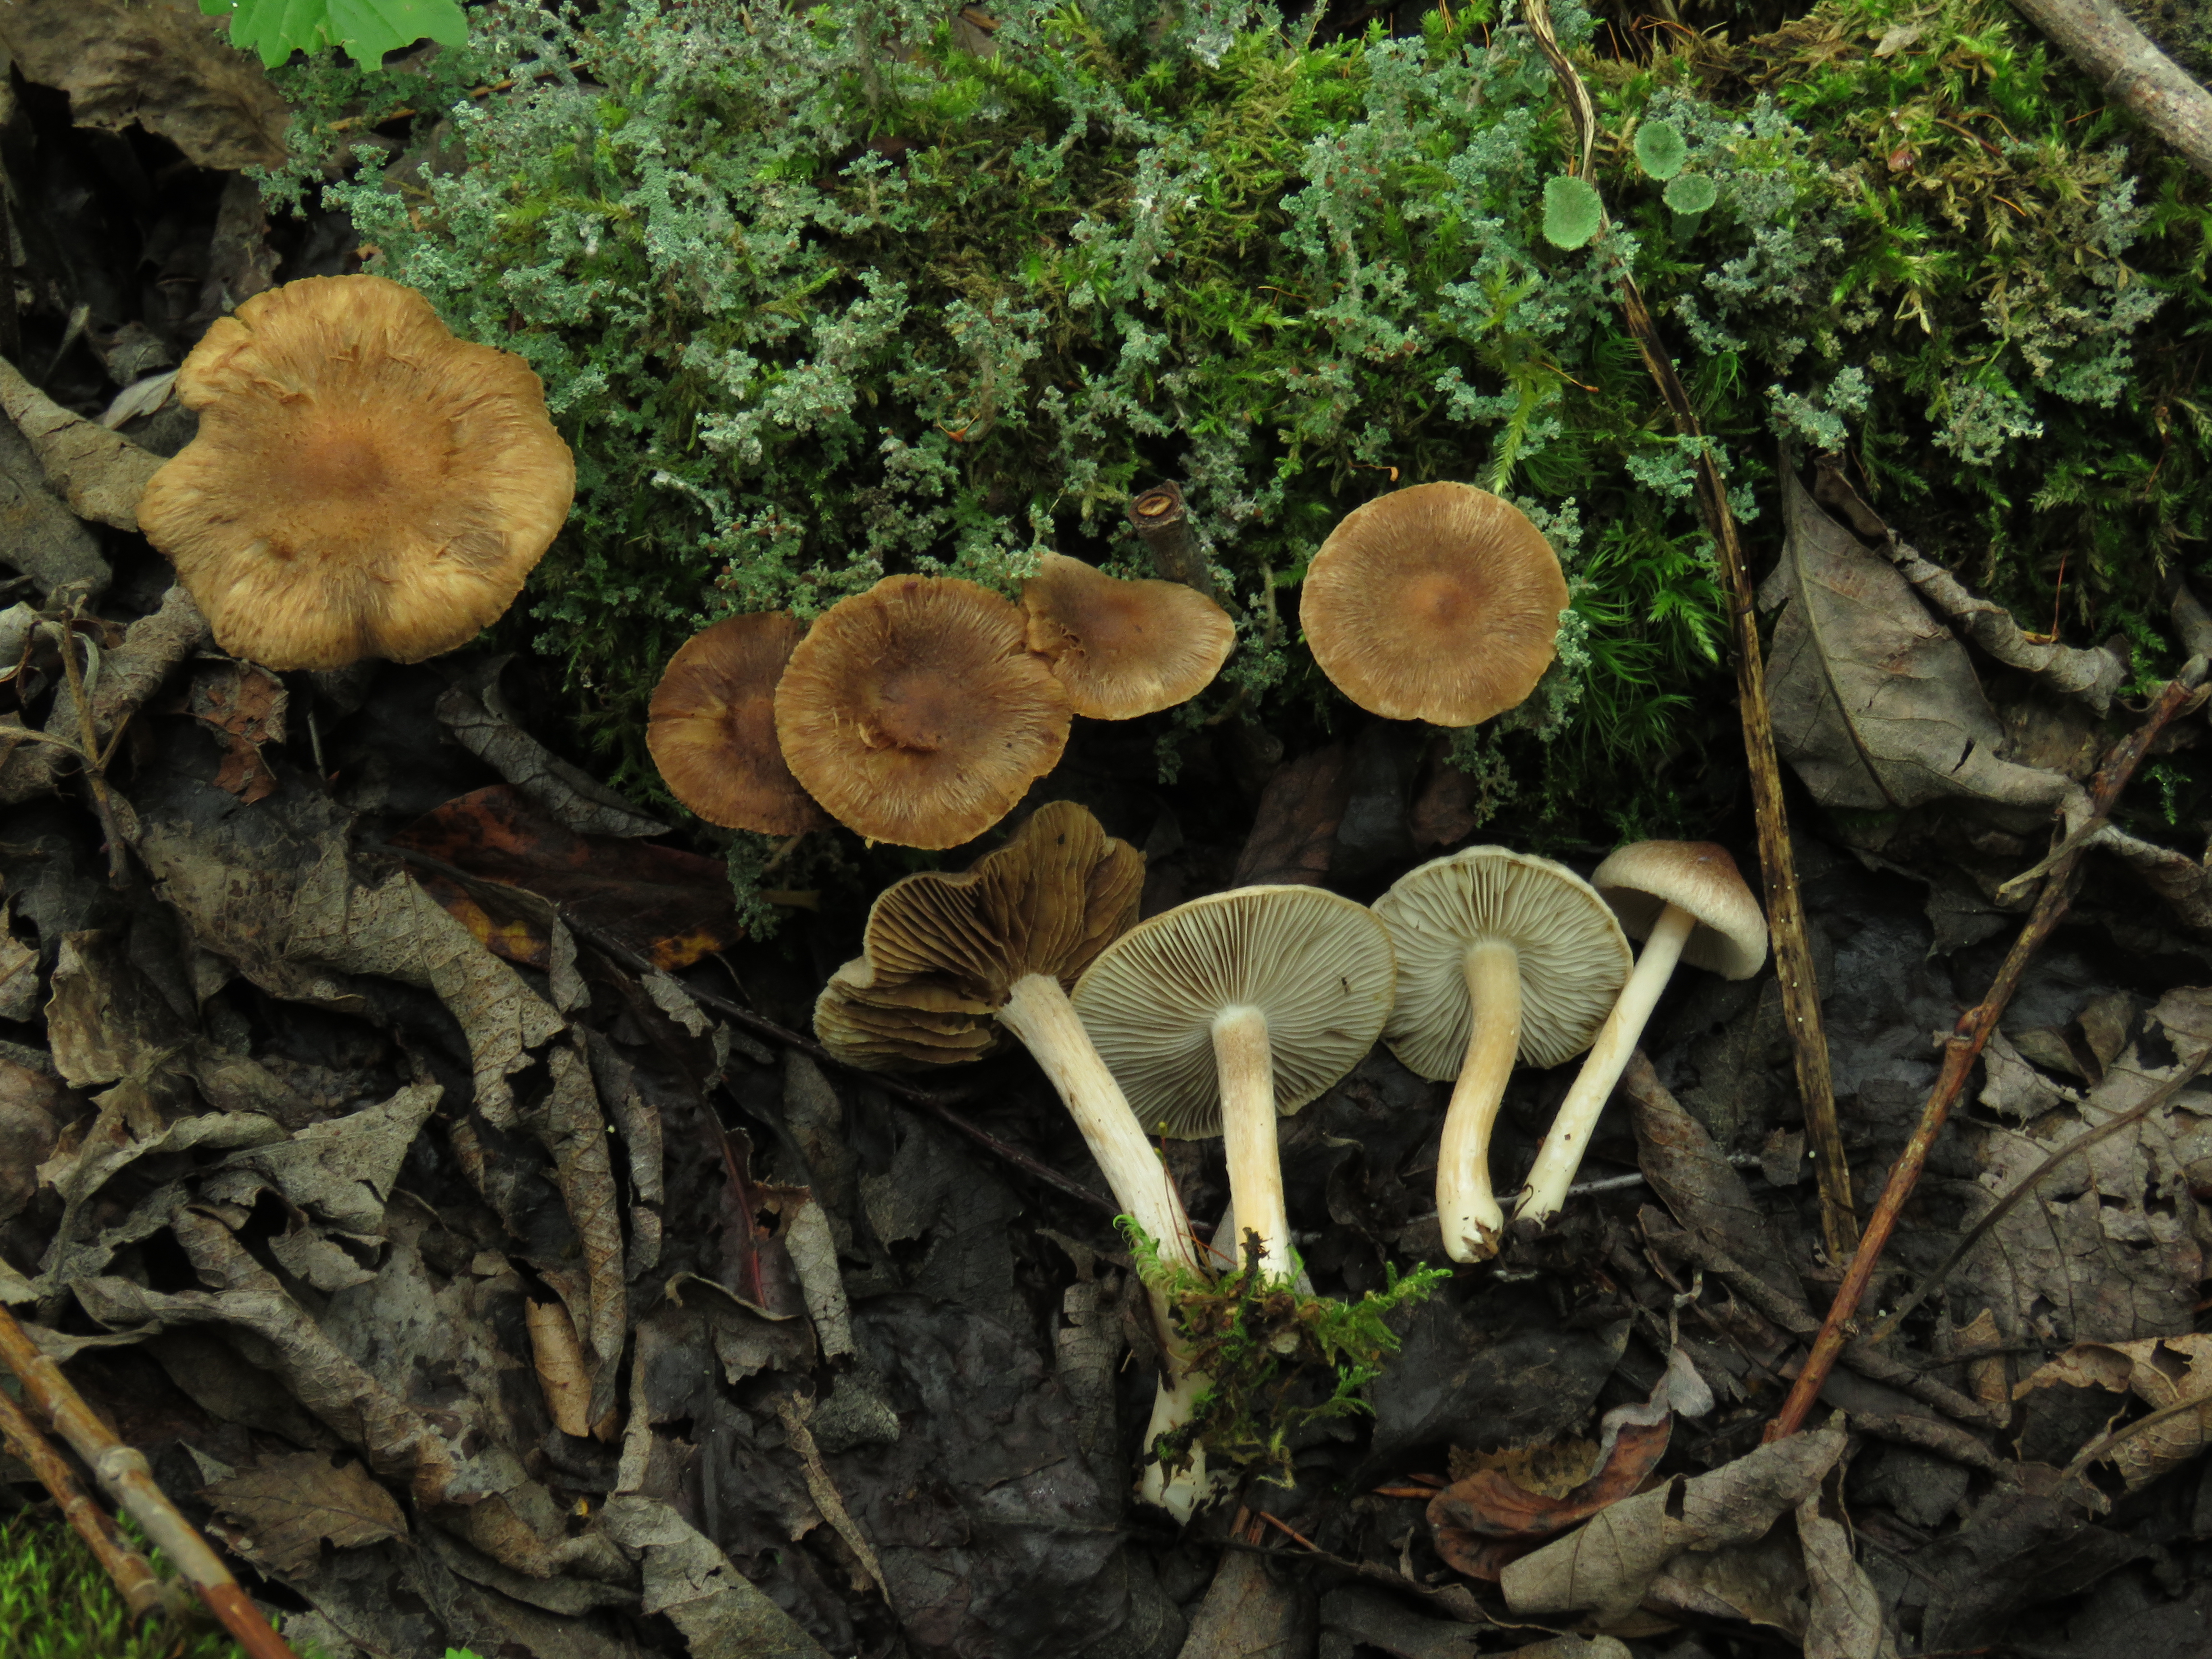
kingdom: Fungi
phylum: Basidiomycota
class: Agaricomycetes
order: Agaricales
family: Inocybaceae
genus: Inocybe
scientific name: Inocybe
